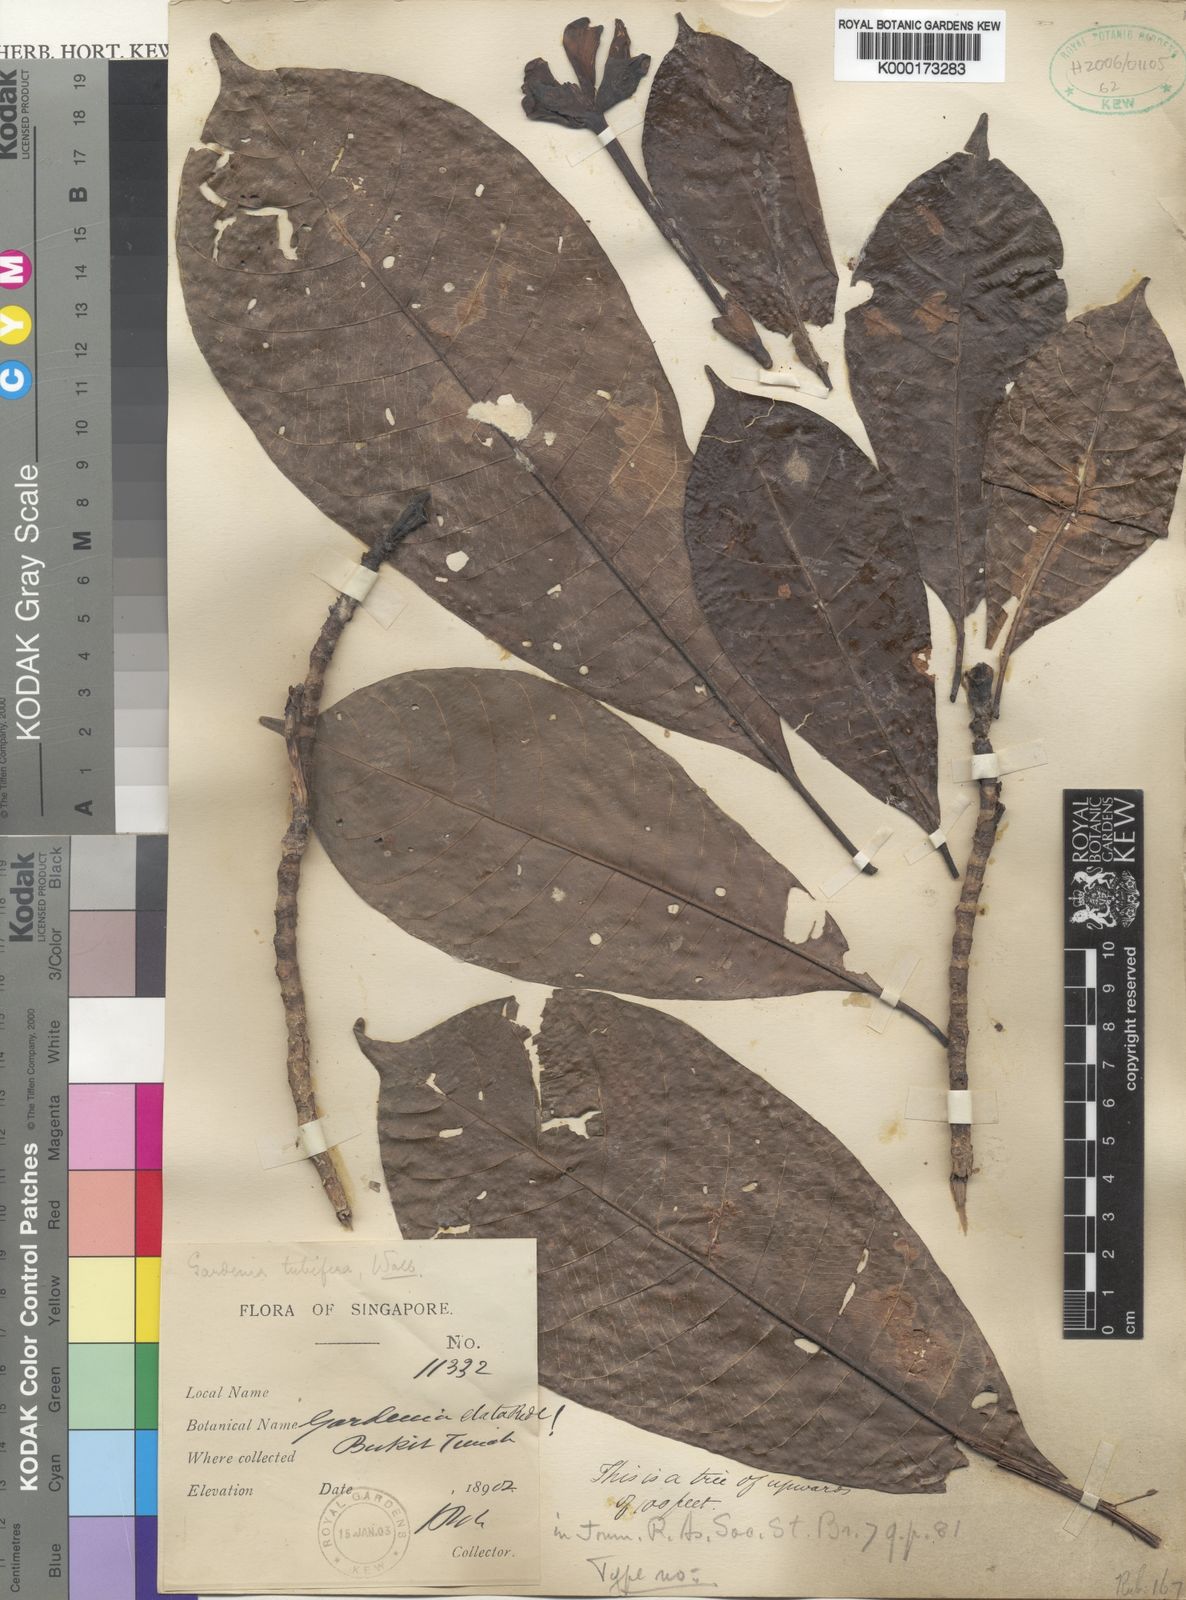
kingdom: Plantae
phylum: Tracheophyta
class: Magnoliopsida
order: Gentianales
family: Rubiaceae
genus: Gardenia
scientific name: Gardenia
